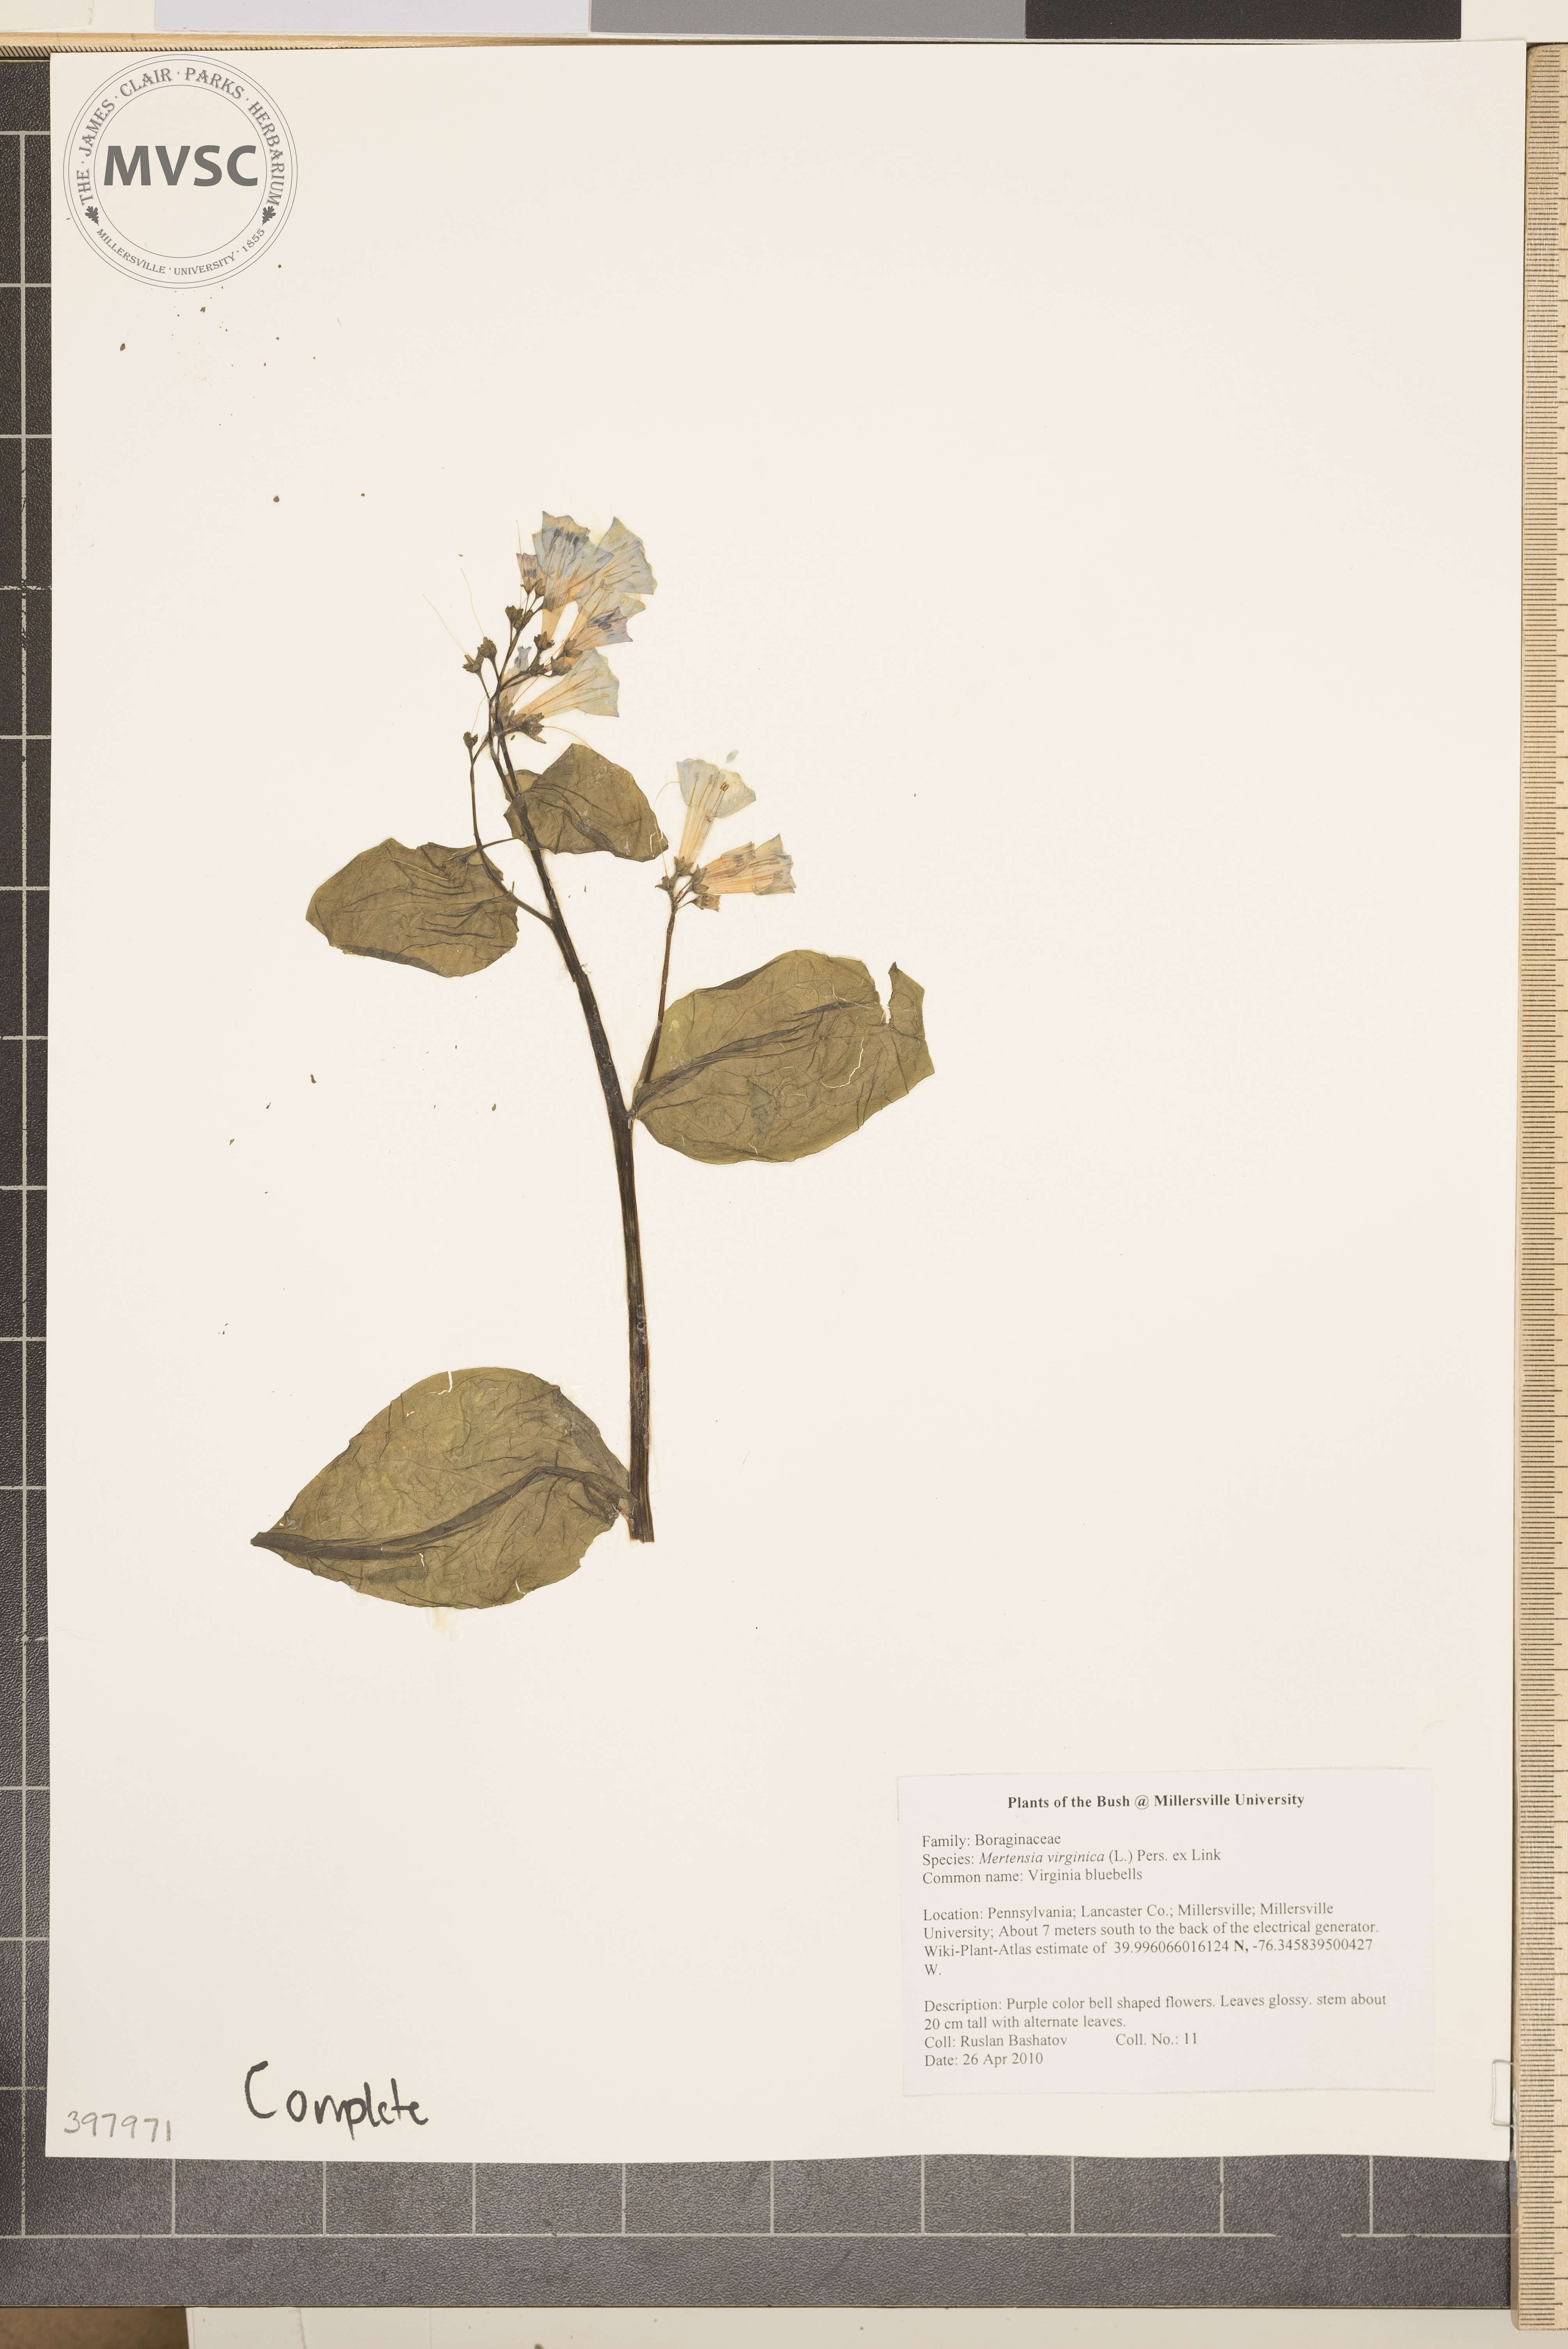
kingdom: Plantae
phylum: Tracheophyta
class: Magnoliopsida
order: Boraginales
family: Boraginaceae
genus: Mertensia
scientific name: Mertensia virginica
